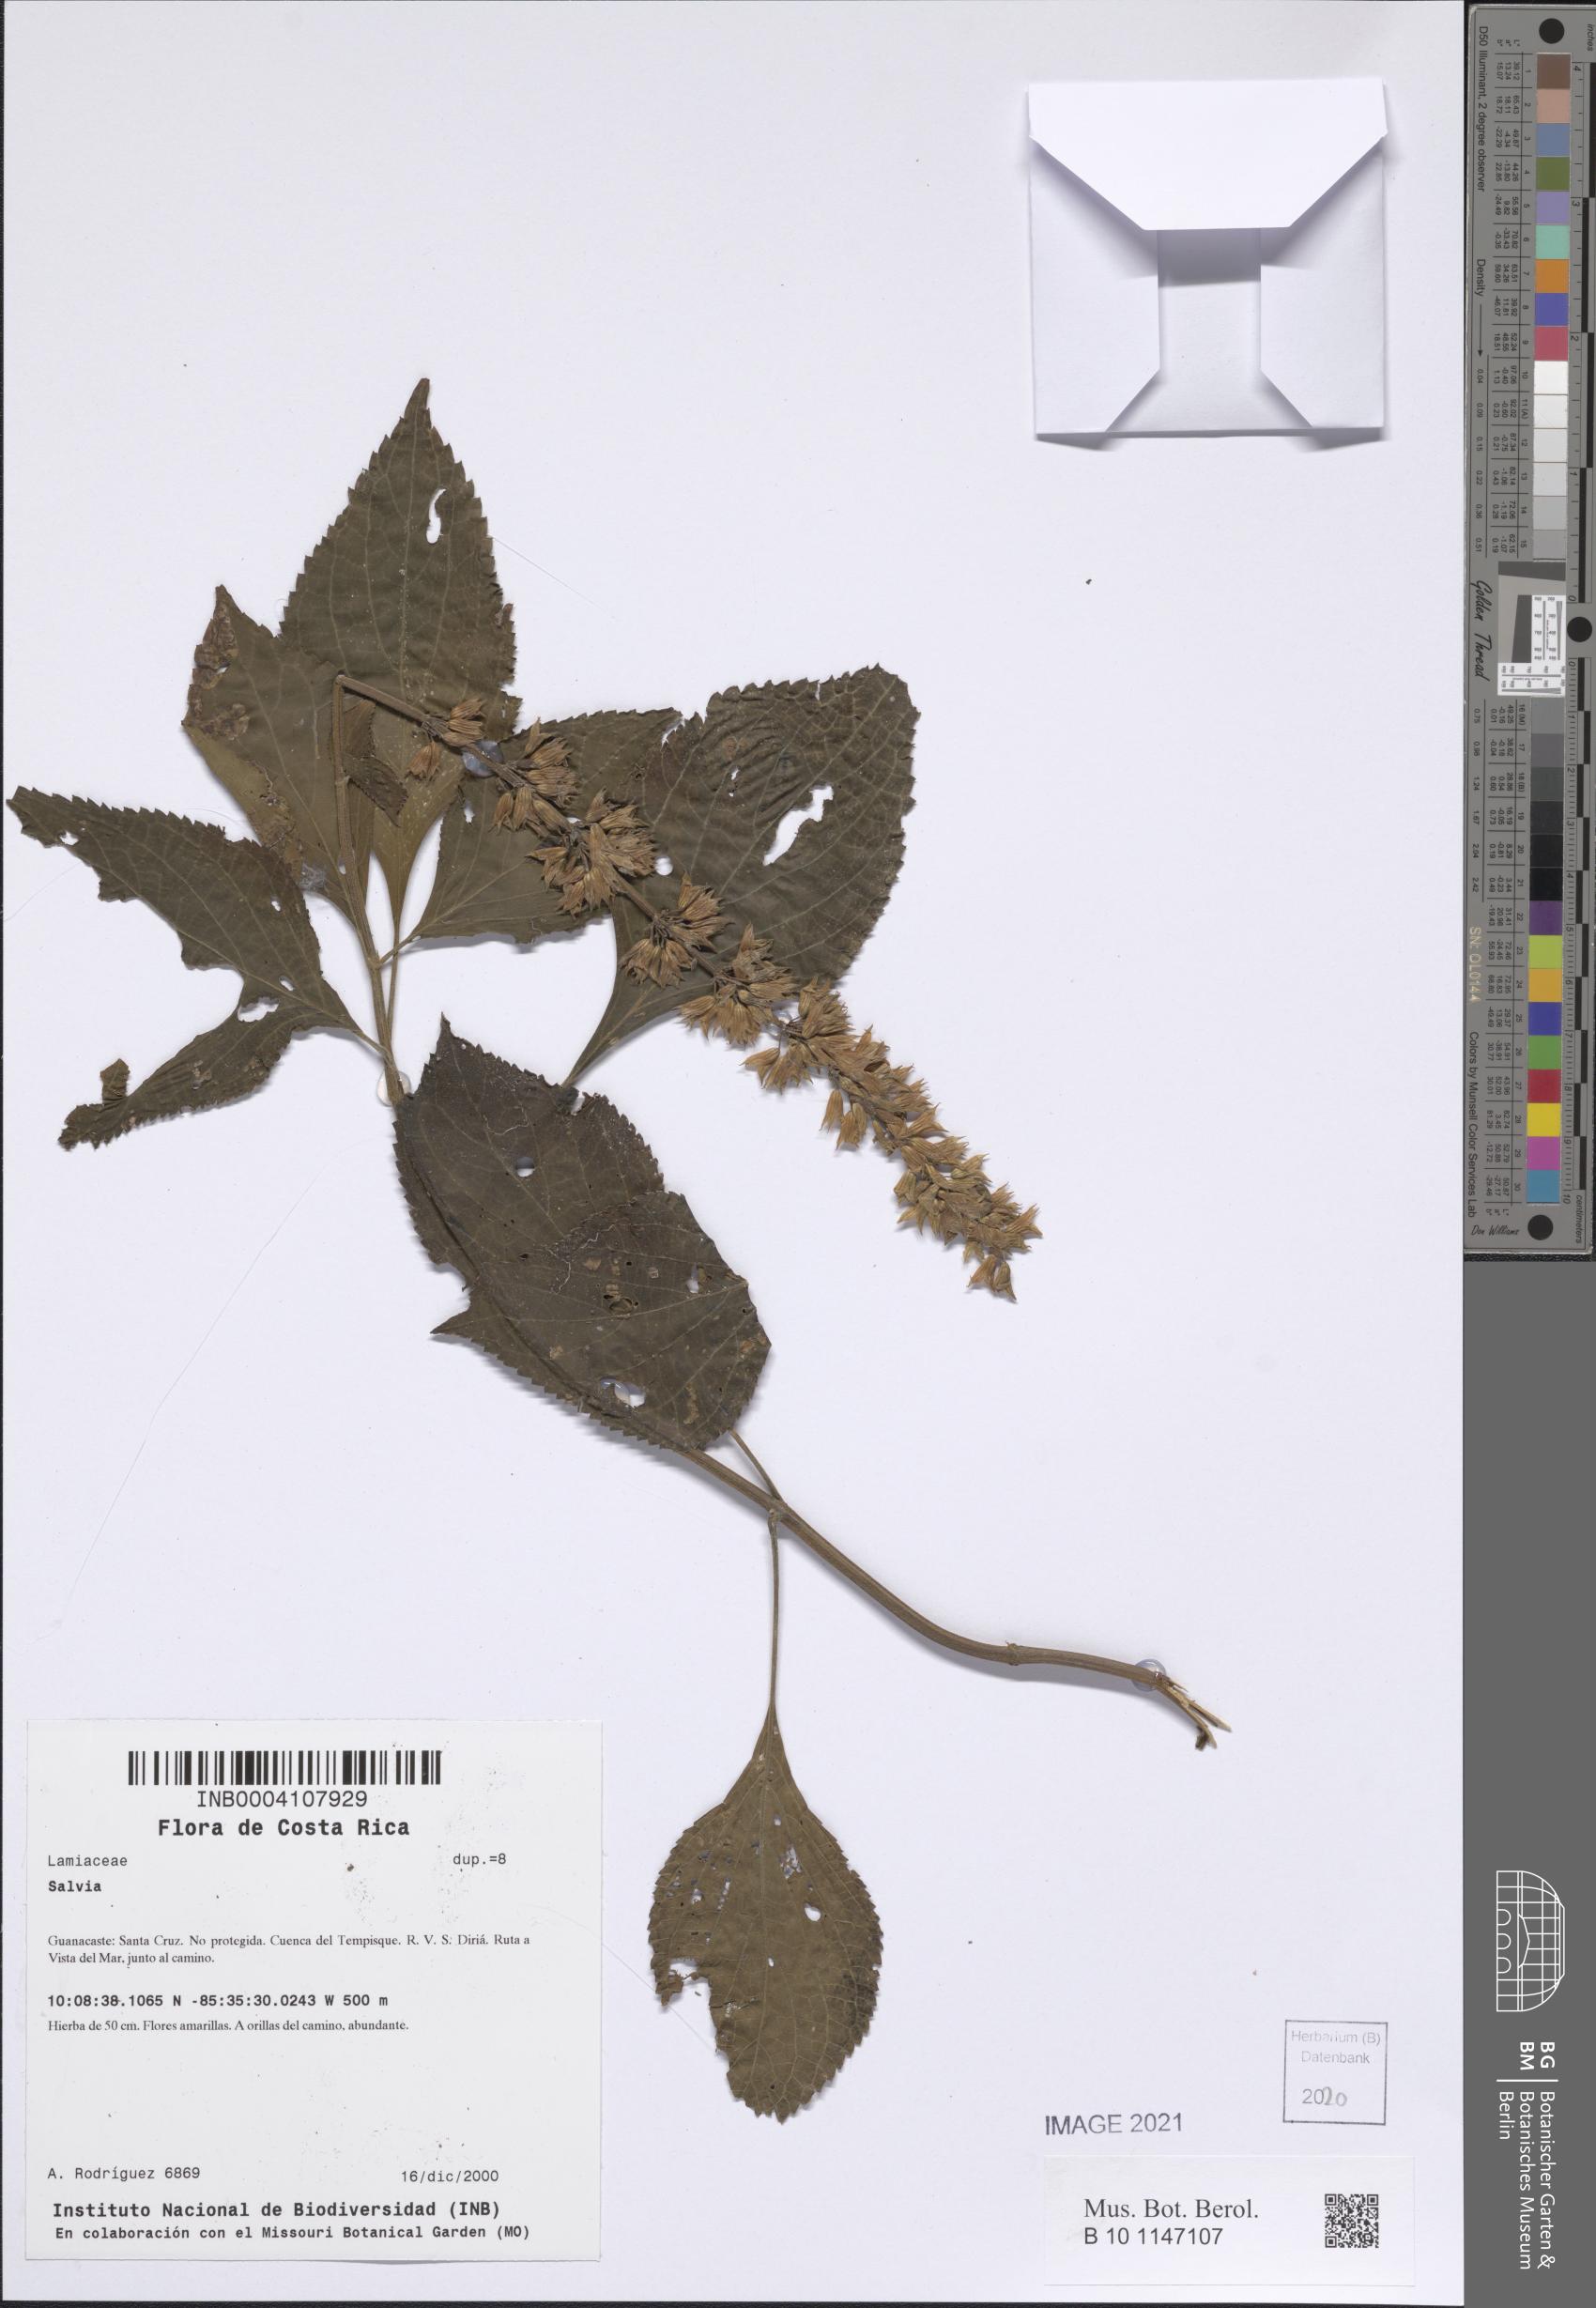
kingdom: Plantae
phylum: Tracheophyta
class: Magnoliopsida
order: Lamiales
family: Lamiaceae
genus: Salvia
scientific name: Salvia
